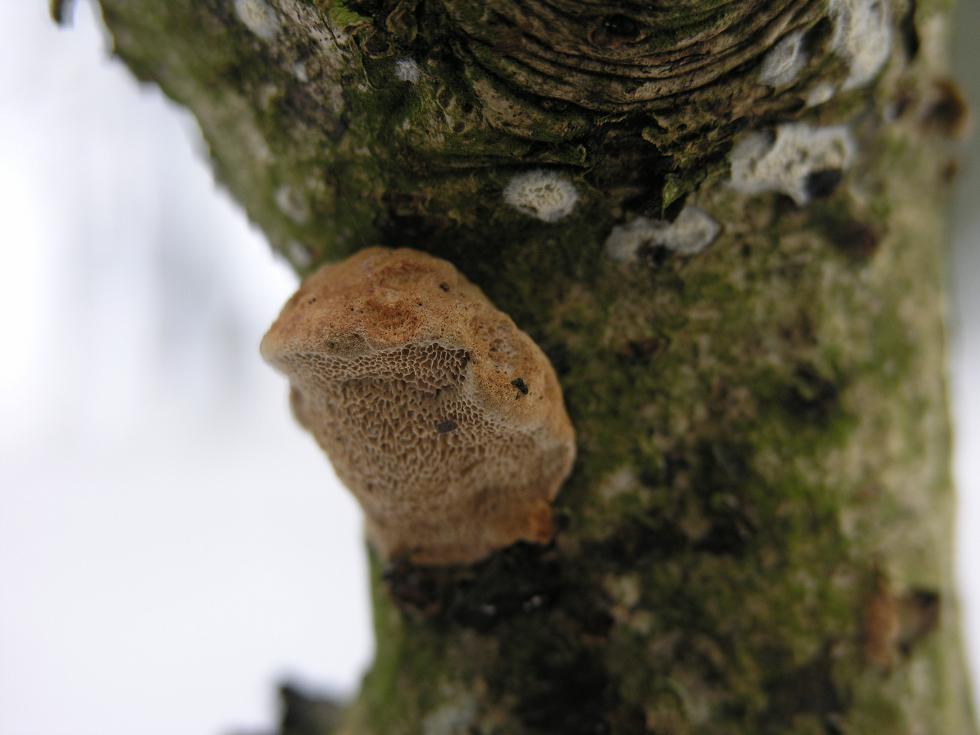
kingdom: Fungi
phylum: Basidiomycota
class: Agaricomycetes
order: Polyporales
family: Phanerochaetaceae
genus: Hapalopilus
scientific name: Hapalopilus rutilans
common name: rødlig okkerporesvamp
